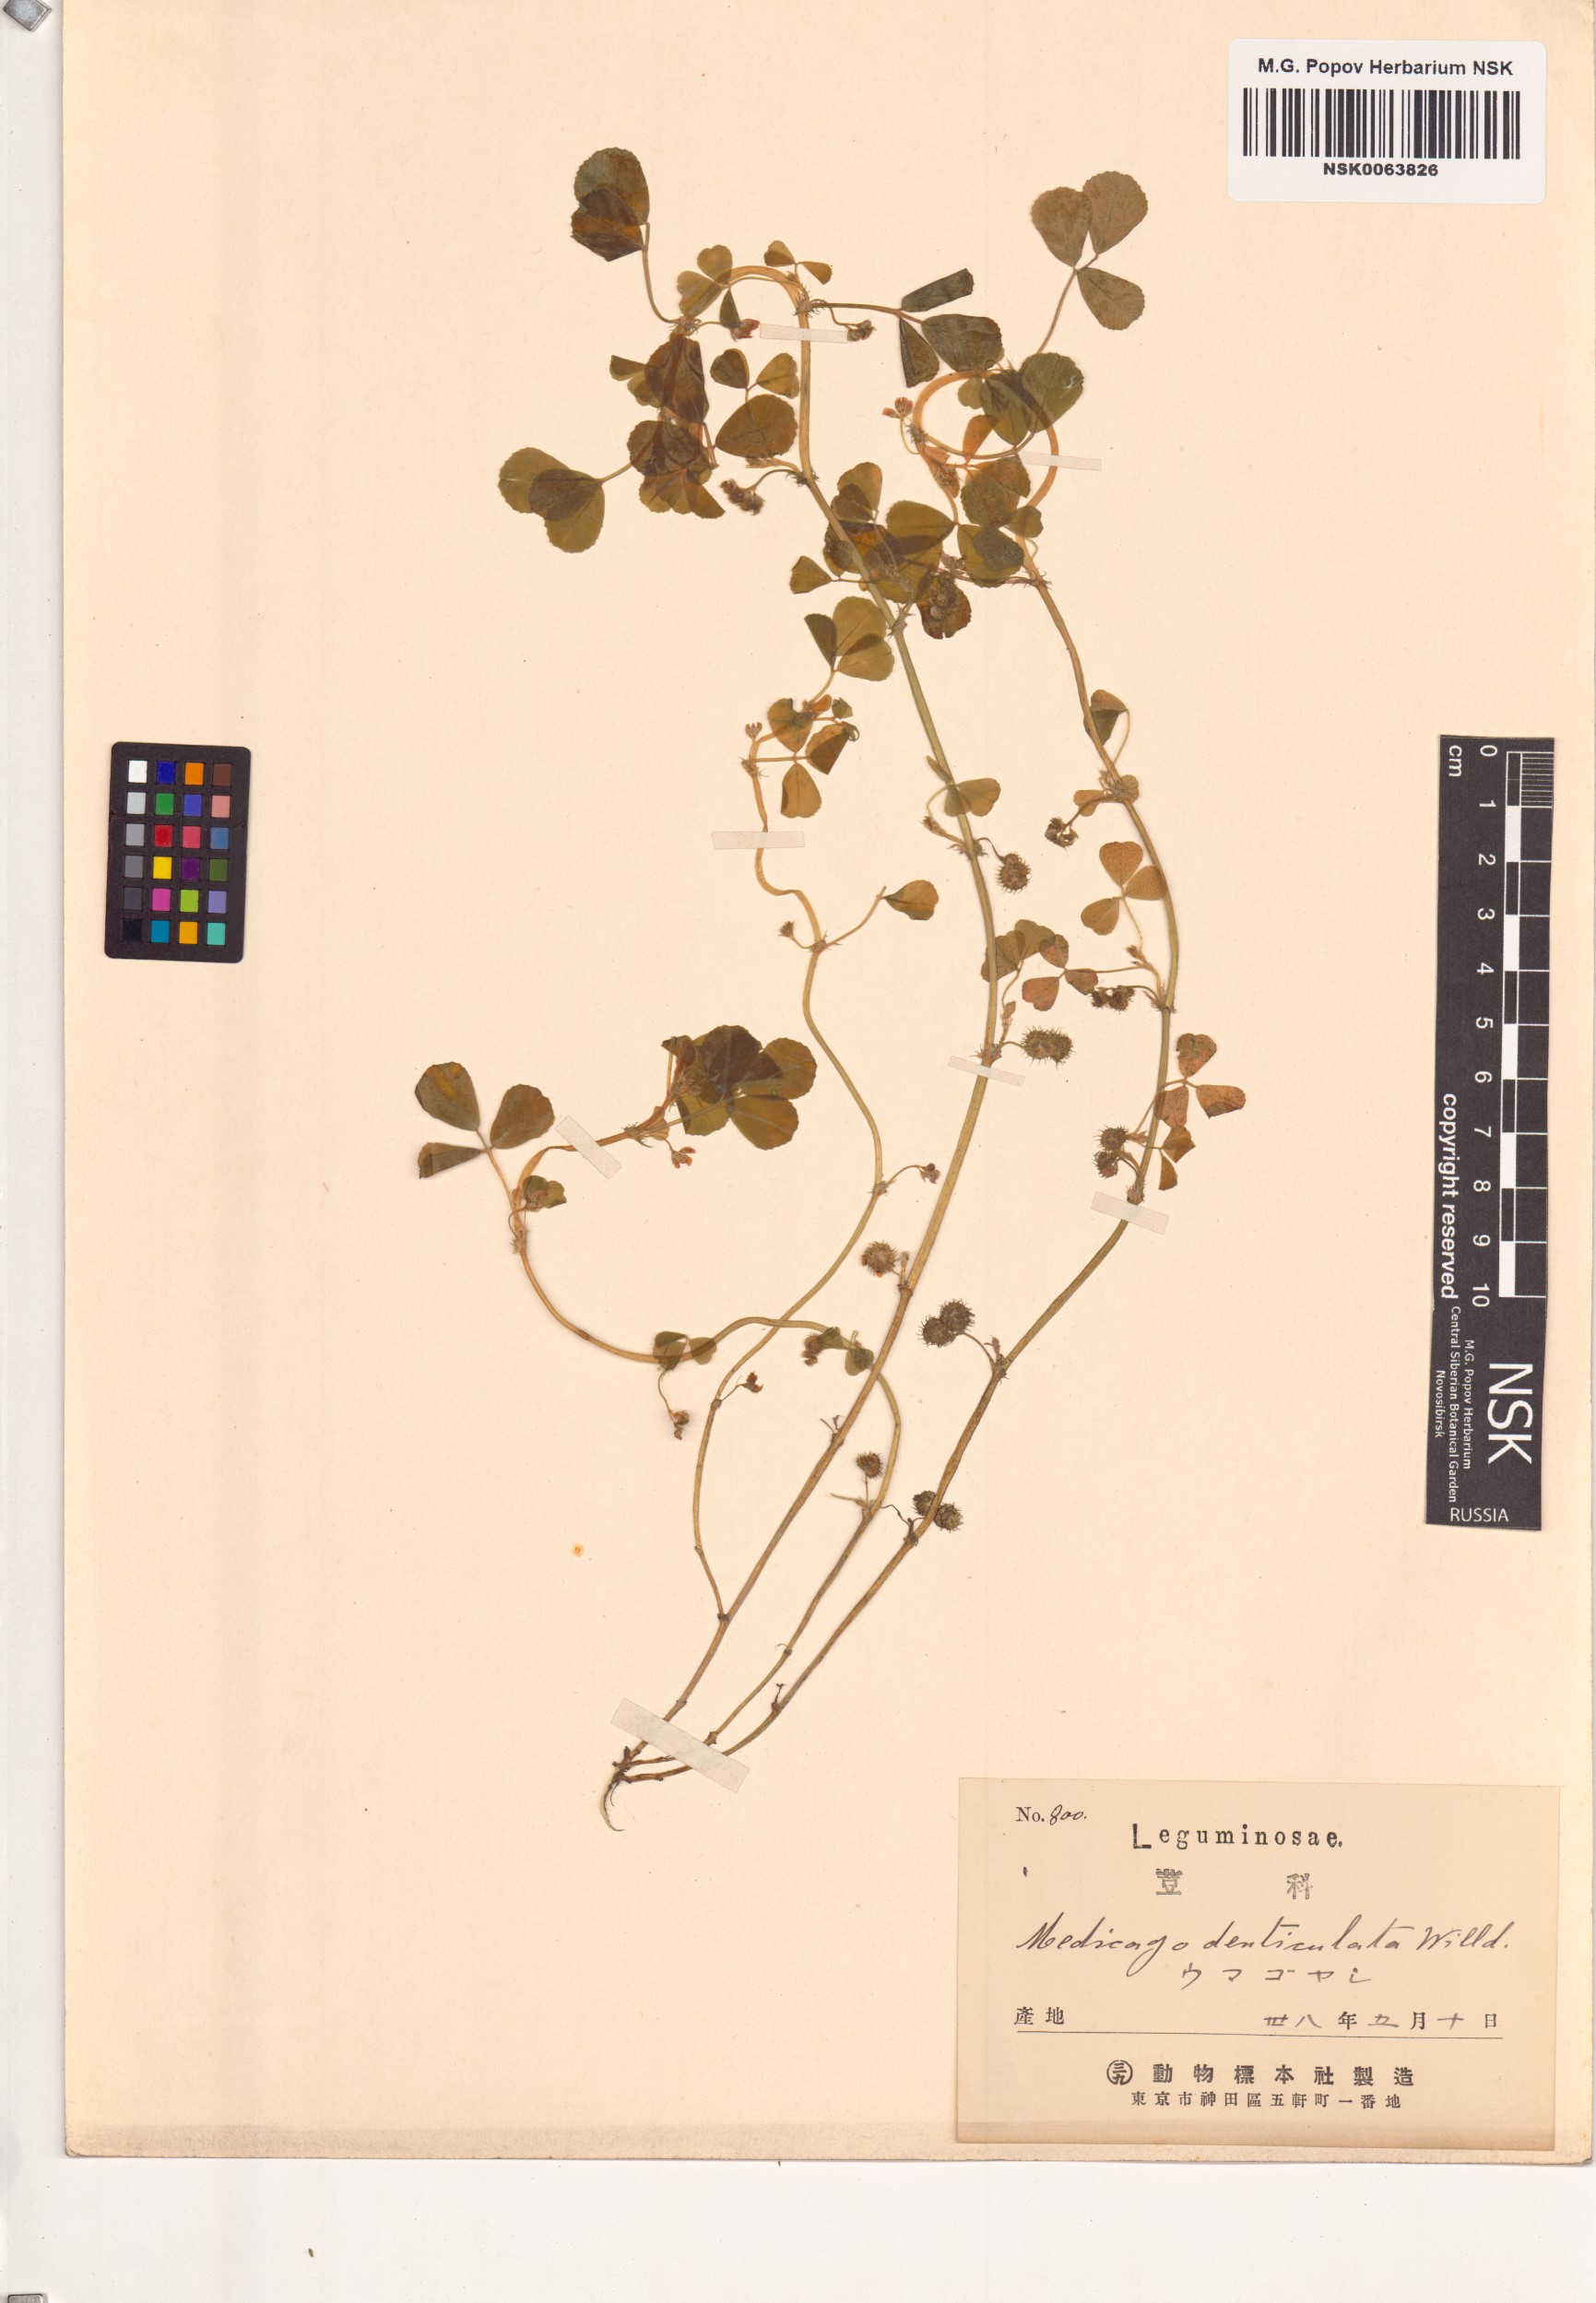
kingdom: Plantae
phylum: Tracheophyta
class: Magnoliopsida
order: Fabales
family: Fabaceae
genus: Medicago
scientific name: Medicago polymorpha
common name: Burclover
